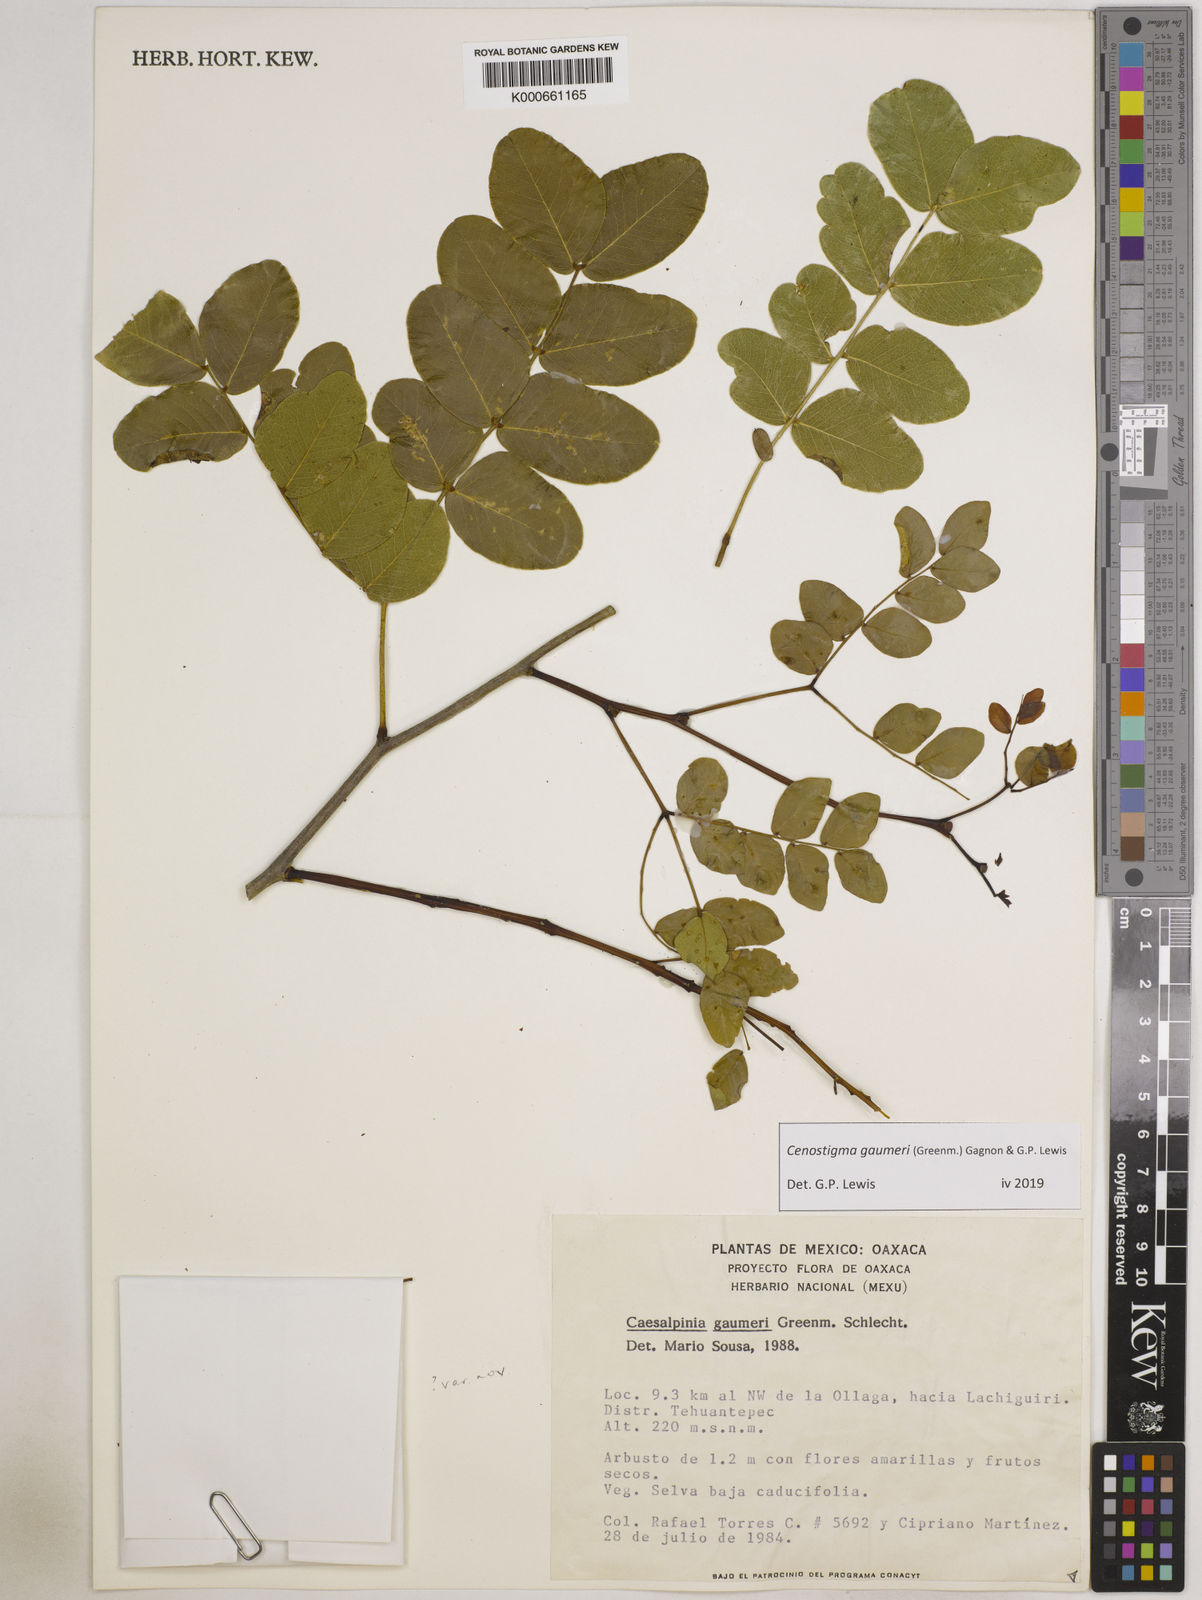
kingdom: Plantae
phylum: Tracheophyta
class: Magnoliopsida
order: Fabales
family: Fabaceae
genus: Cenostigma
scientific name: Cenostigma gaumeri
